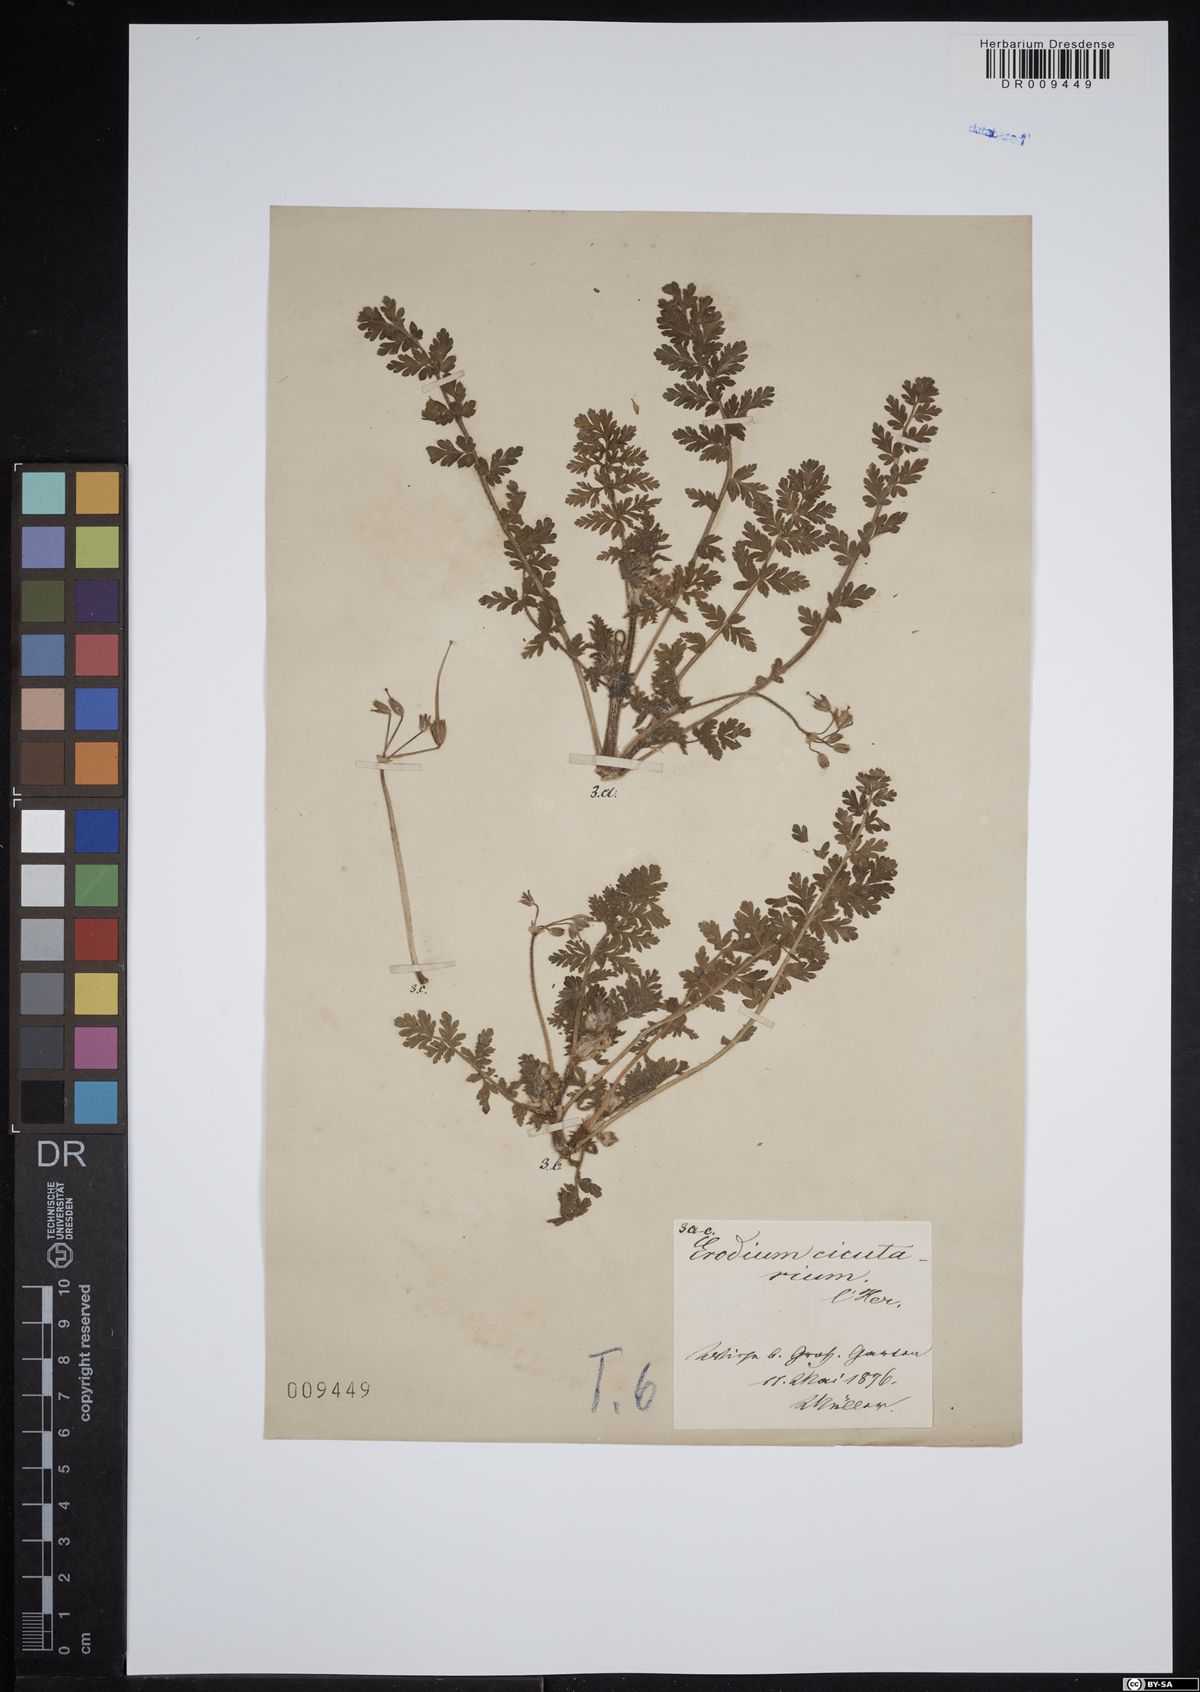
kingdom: Plantae
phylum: Tracheophyta
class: Magnoliopsida
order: Geraniales
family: Geraniaceae
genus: Erodium
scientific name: Erodium cicutarium
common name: Common stork's-bill
